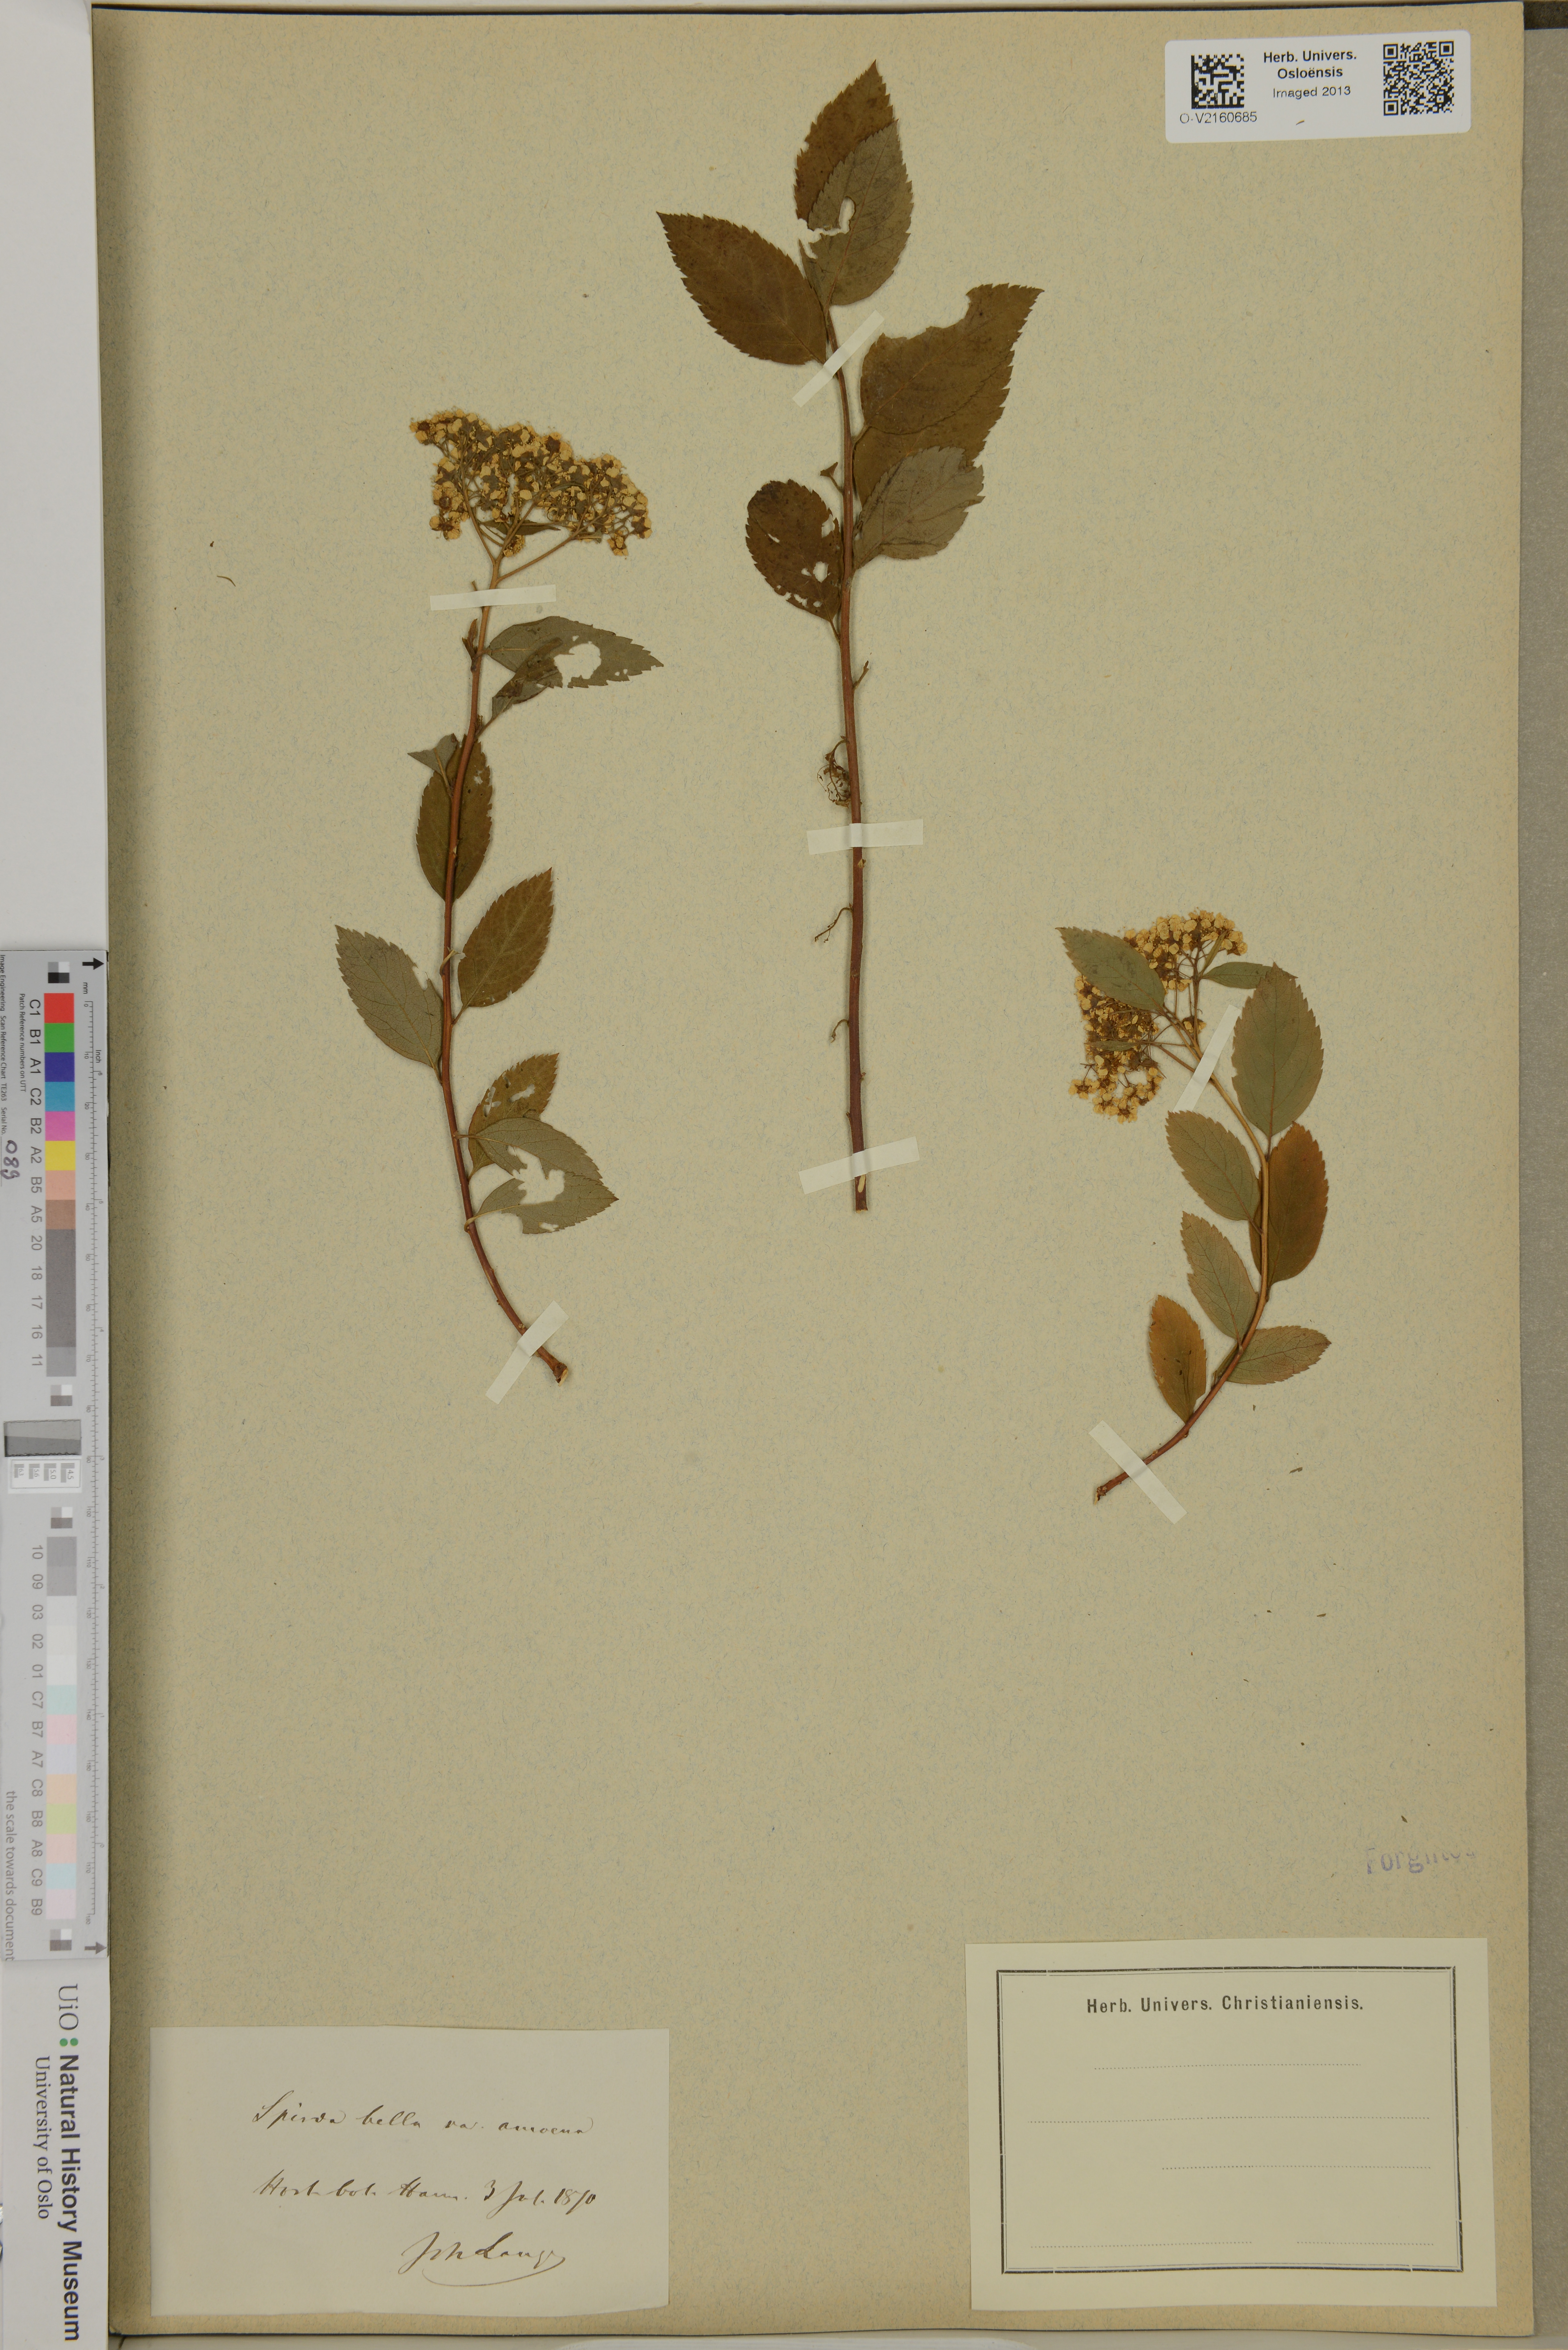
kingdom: Plantae
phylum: Tracheophyta
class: Magnoliopsida
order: Rosales
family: Rosaceae
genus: Spiraea
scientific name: Spiraea bella
